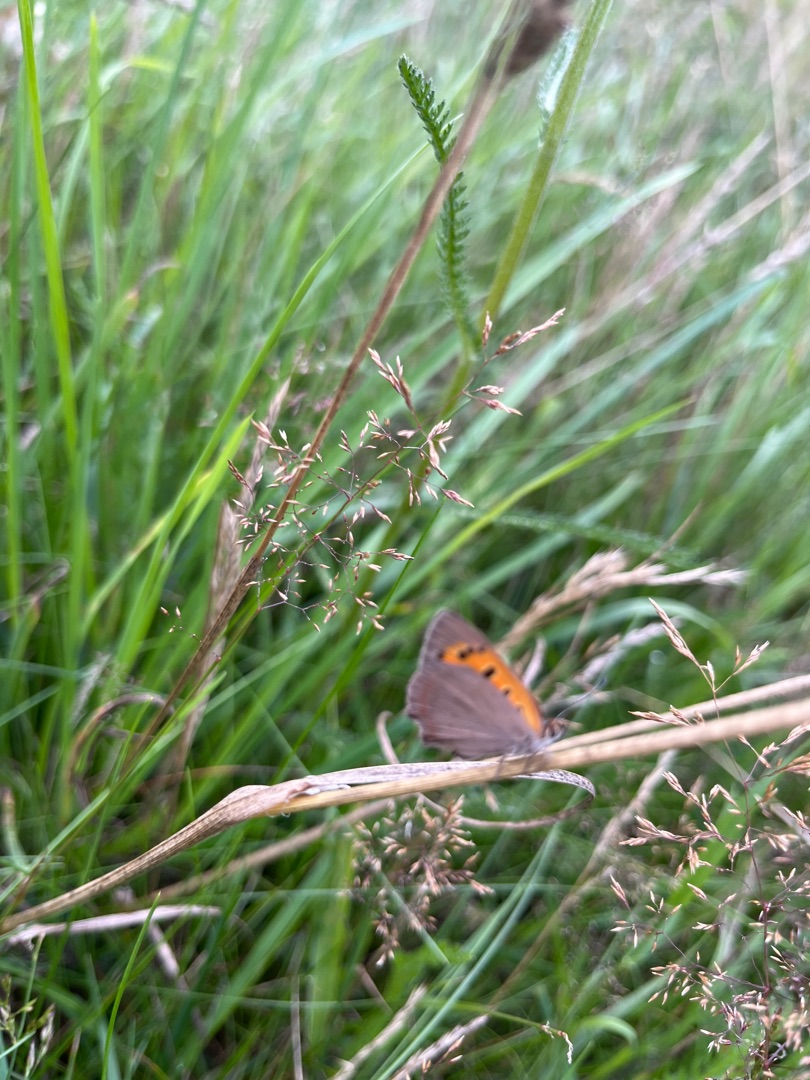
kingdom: Animalia
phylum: Arthropoda
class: Insecta
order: Lepidoptera
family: Lycaenidae
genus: Lycaena
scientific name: Lycaena phlaeas
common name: Lille ildfugl
